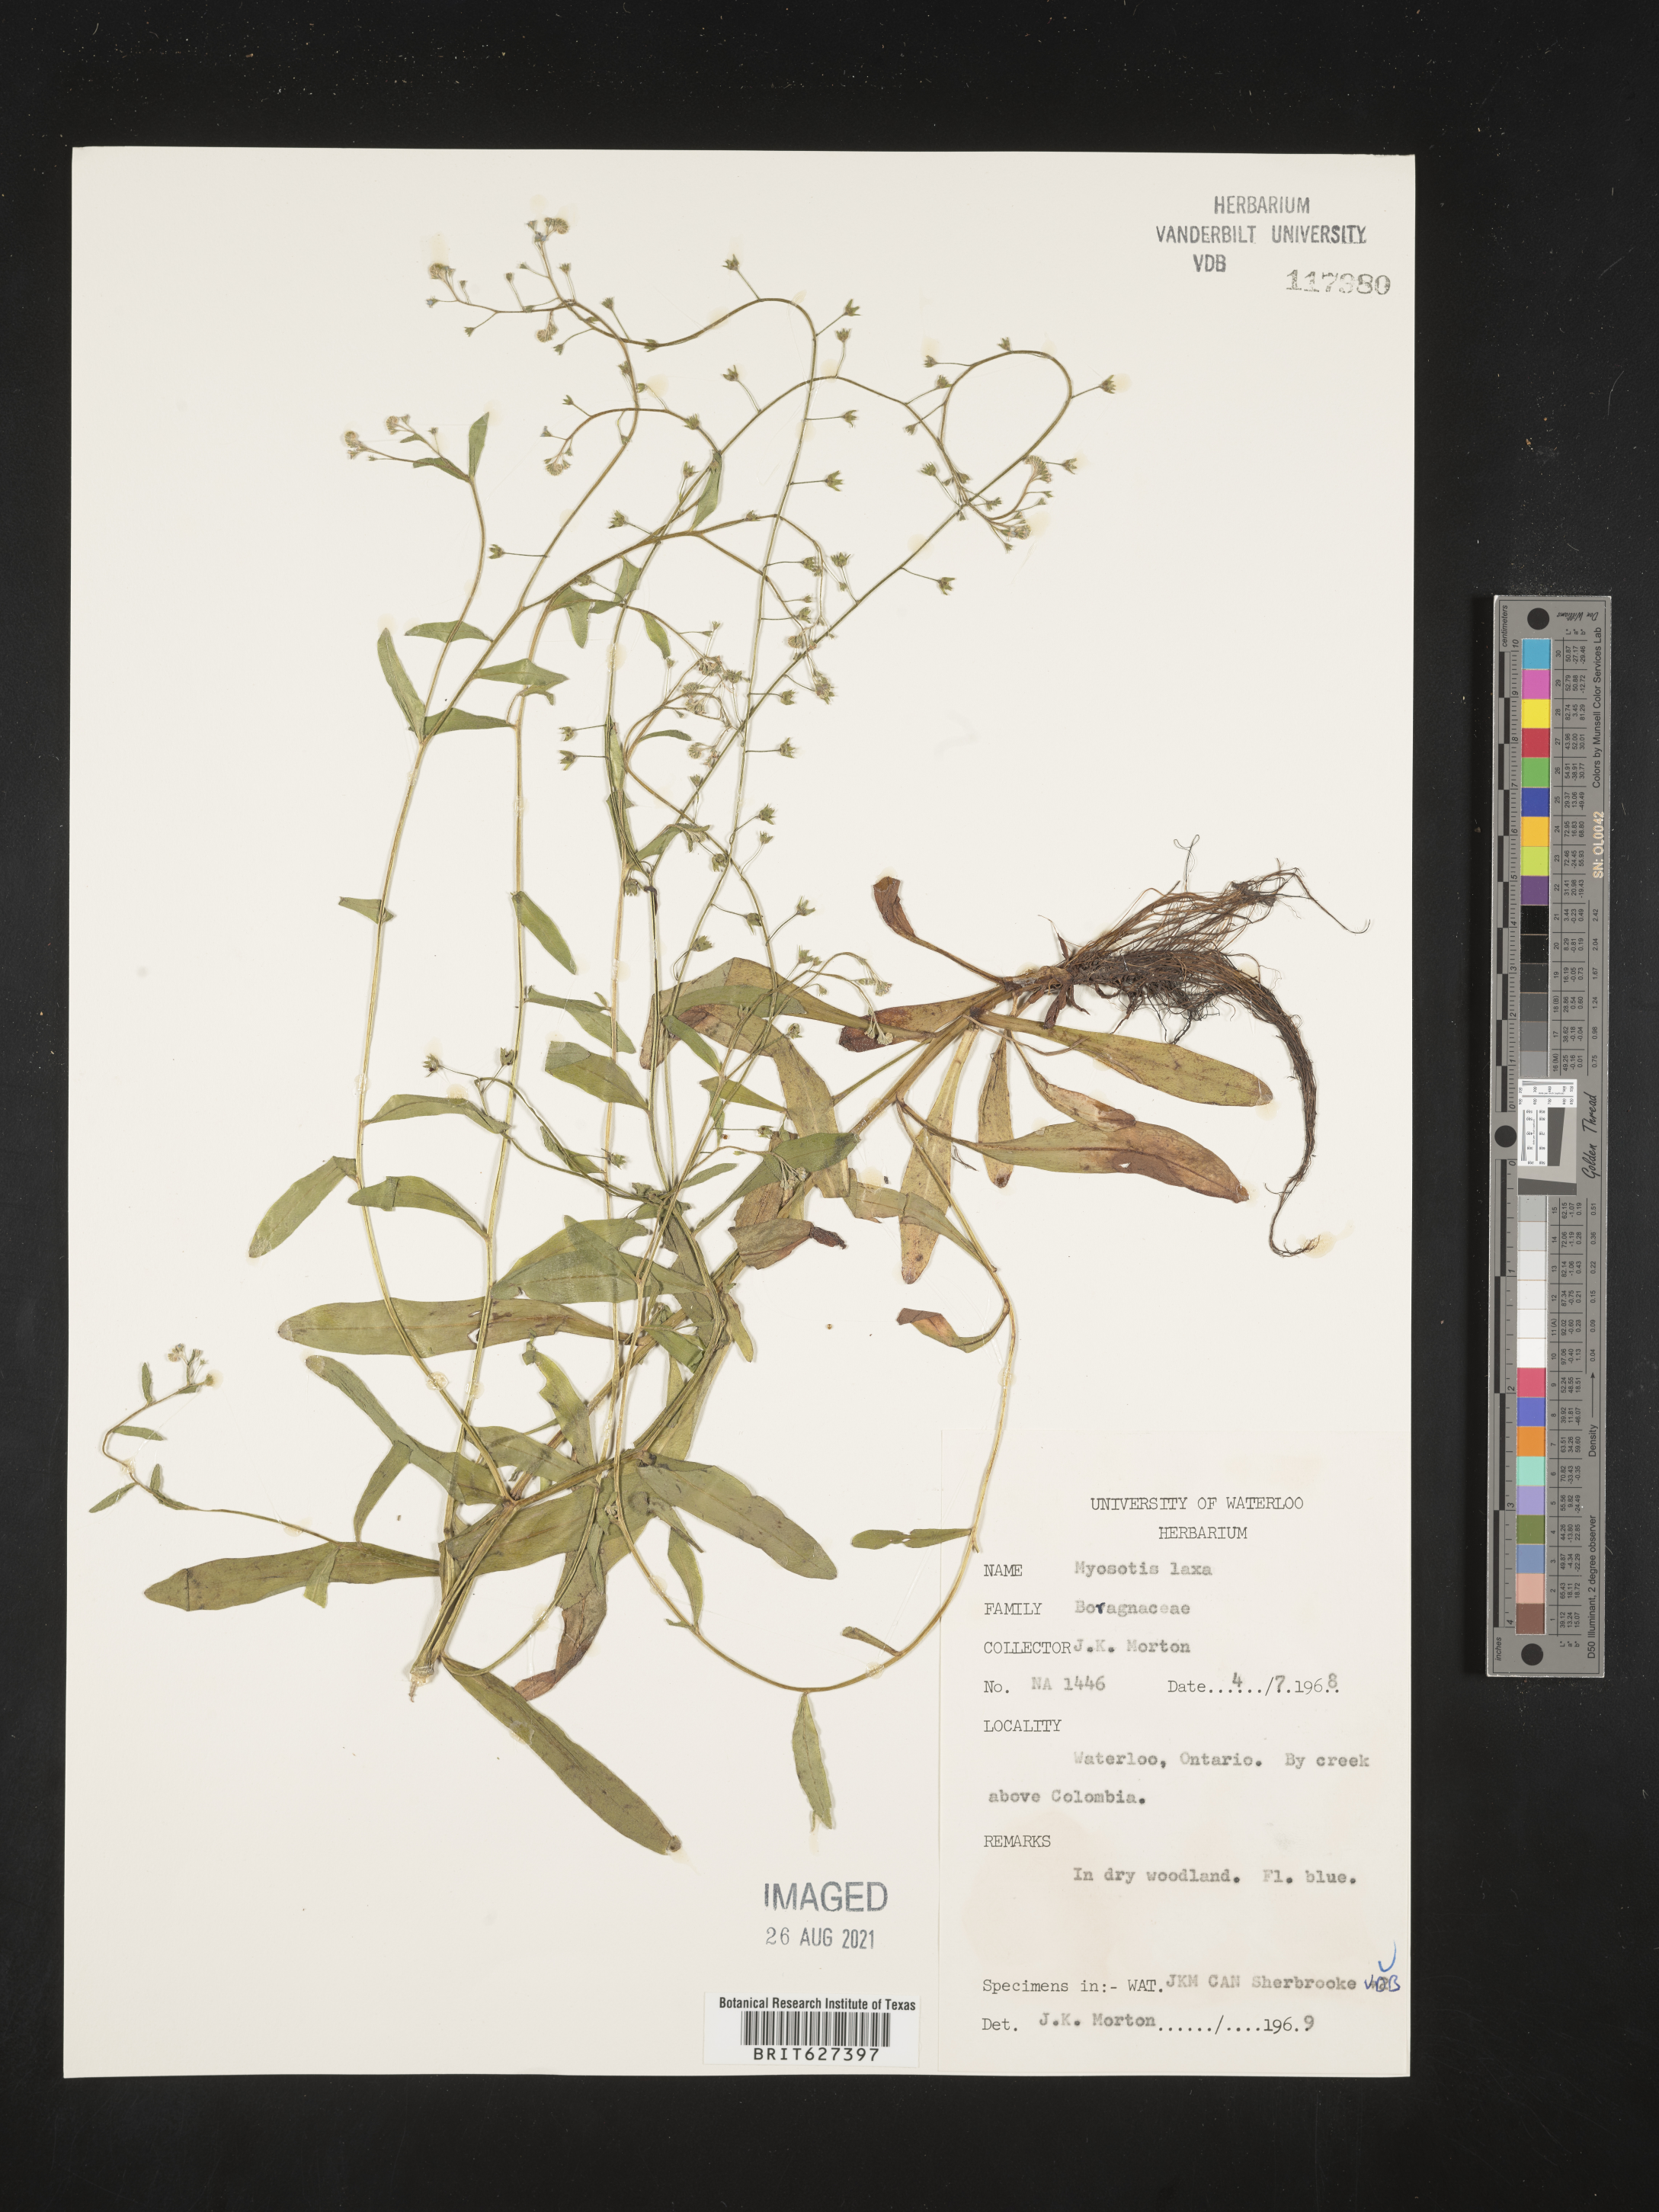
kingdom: Plantae
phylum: Tracheophyta
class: Magnoliopsida
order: Boraginales
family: Boraginaceae
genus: Myosotis
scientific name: Myosotis laxa
